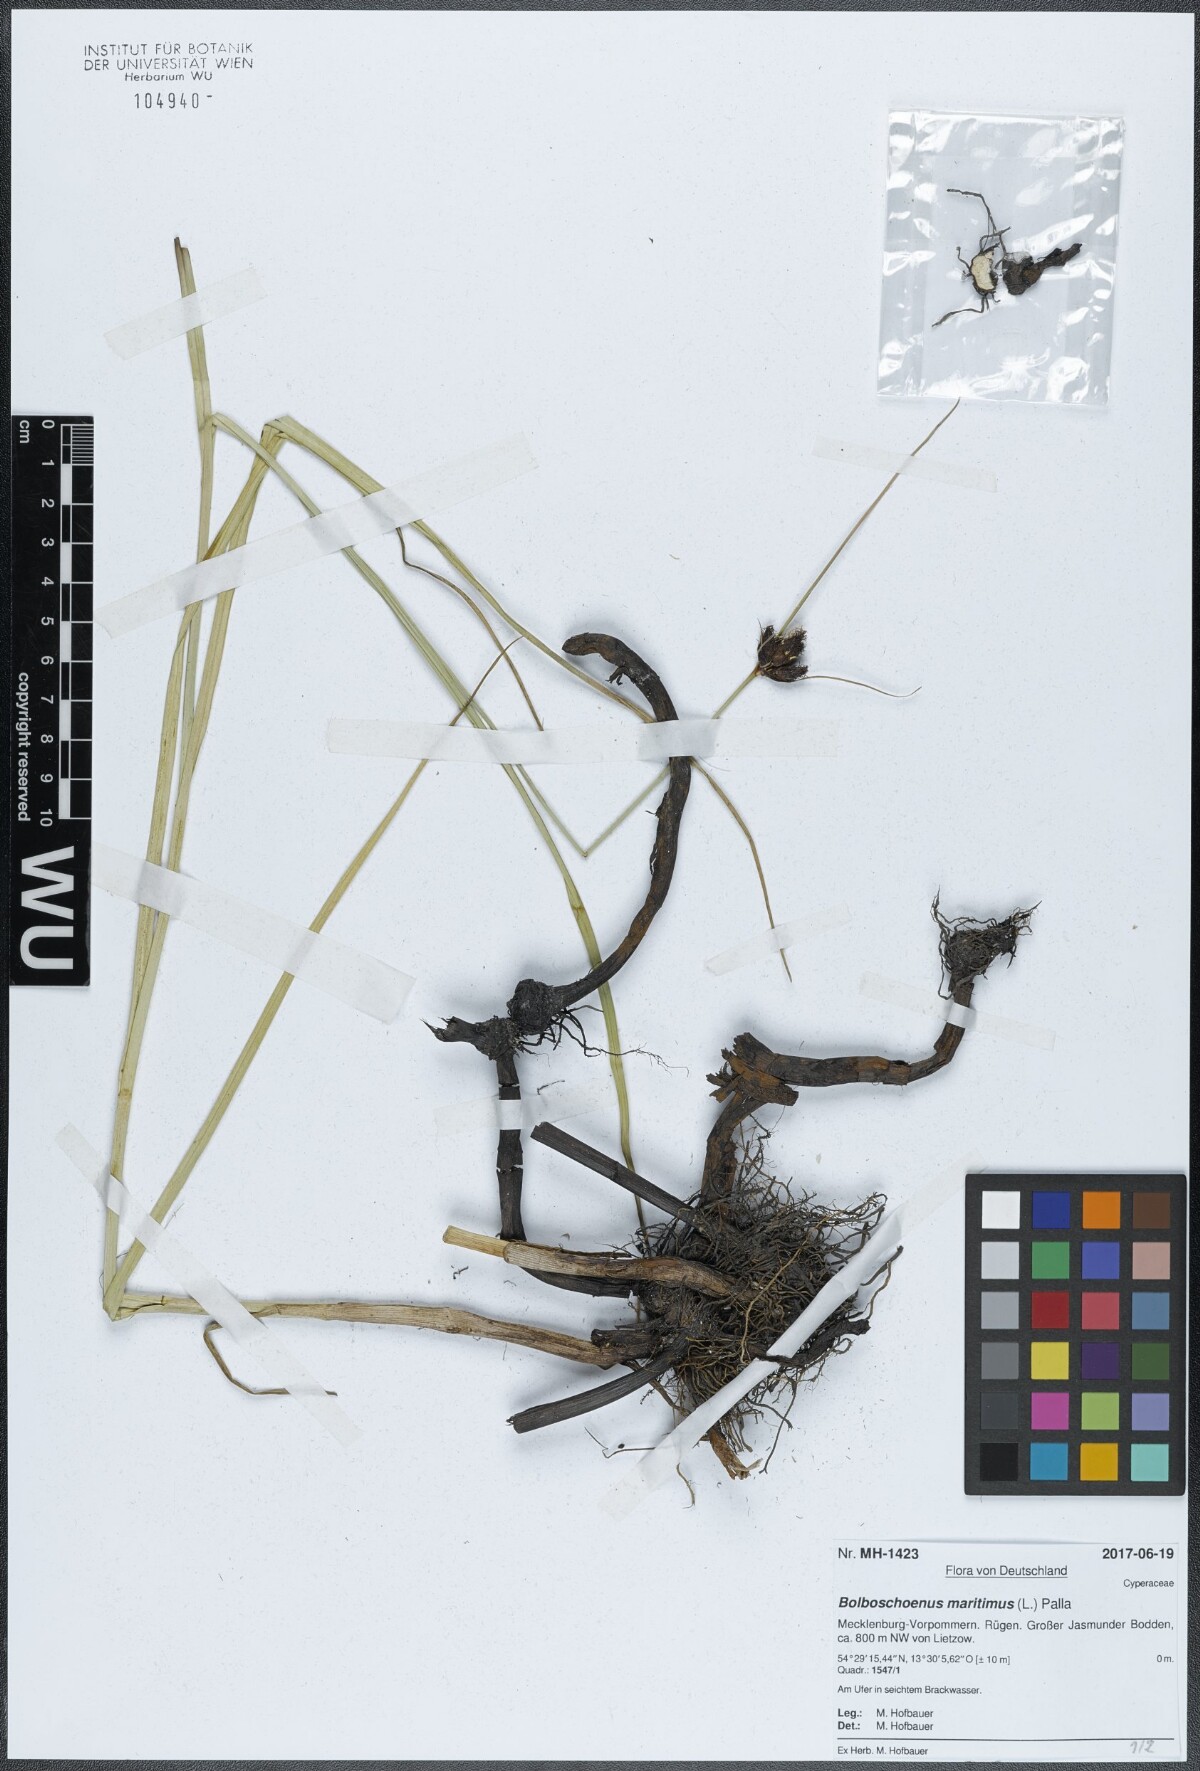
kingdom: Plantae
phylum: Tracheophyta
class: Liliopsida
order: Poales
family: Cyperaceae
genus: Bolboschoenus
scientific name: Bolboschoenus maritimus
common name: Sea club-rush
